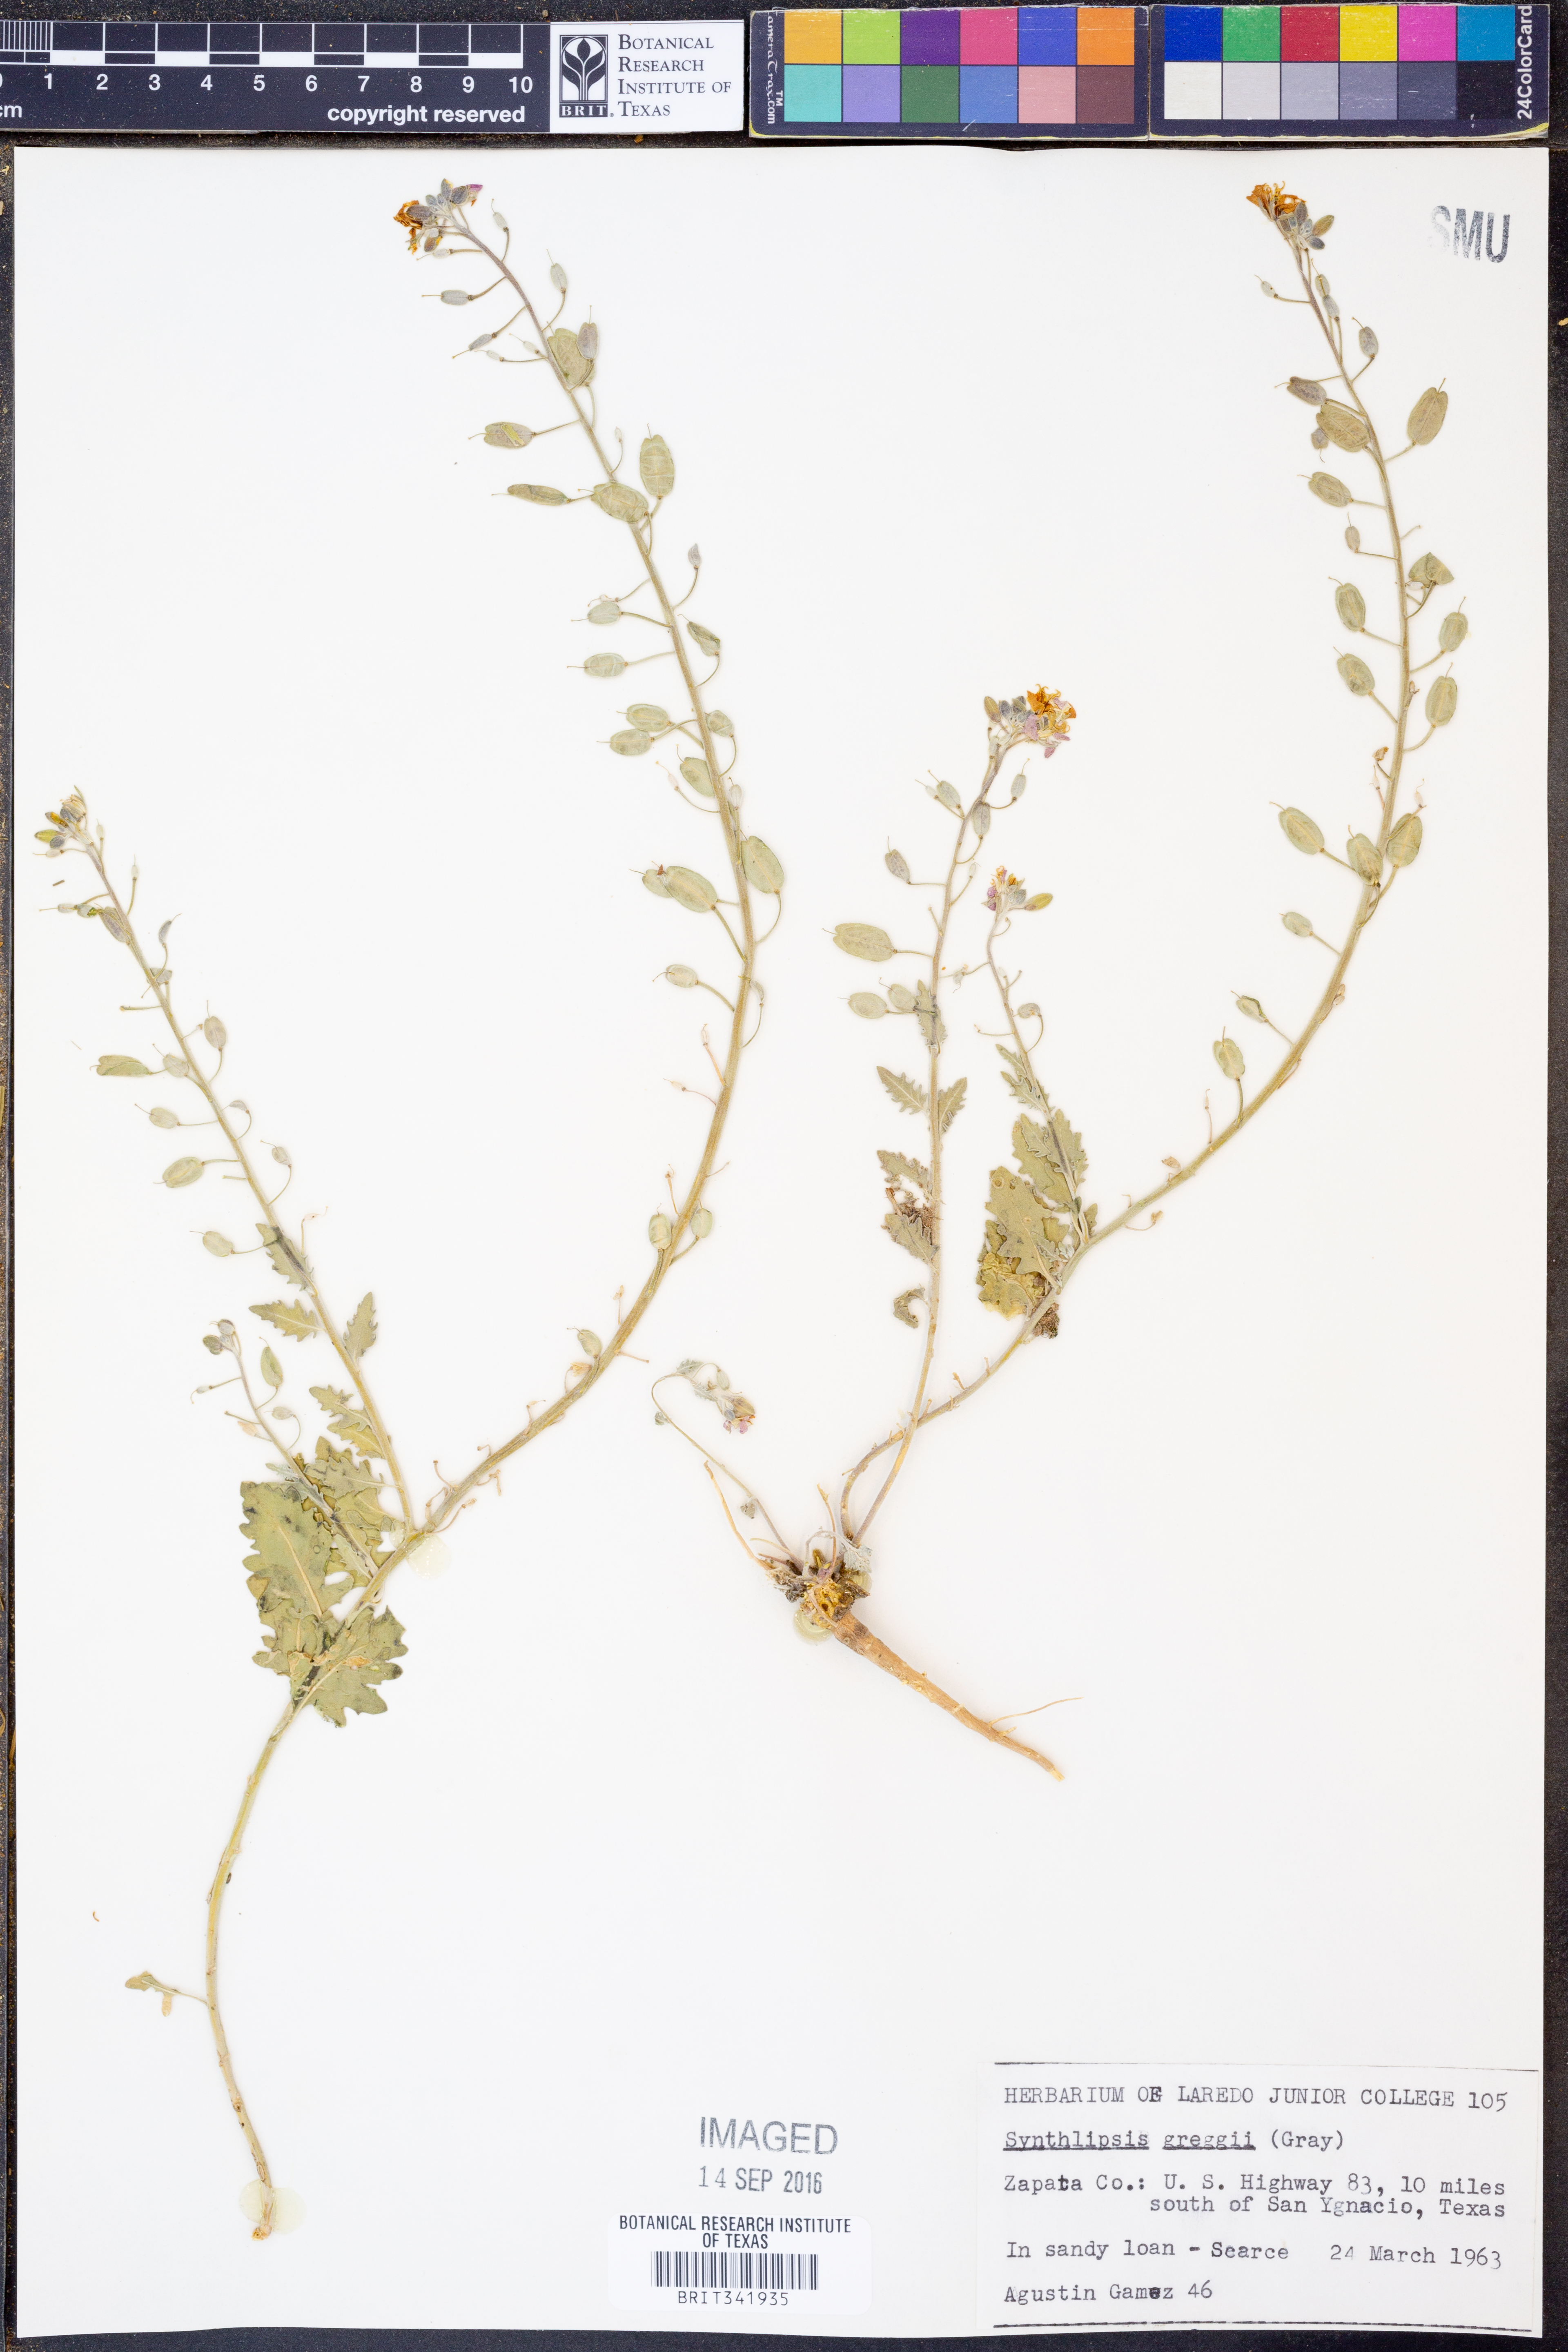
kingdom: Plantae
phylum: Tracheophyta
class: Magnoliopsida
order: Brassicales
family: Brassicaceae
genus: Synthlipsis
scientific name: Synthlipsis greggii
